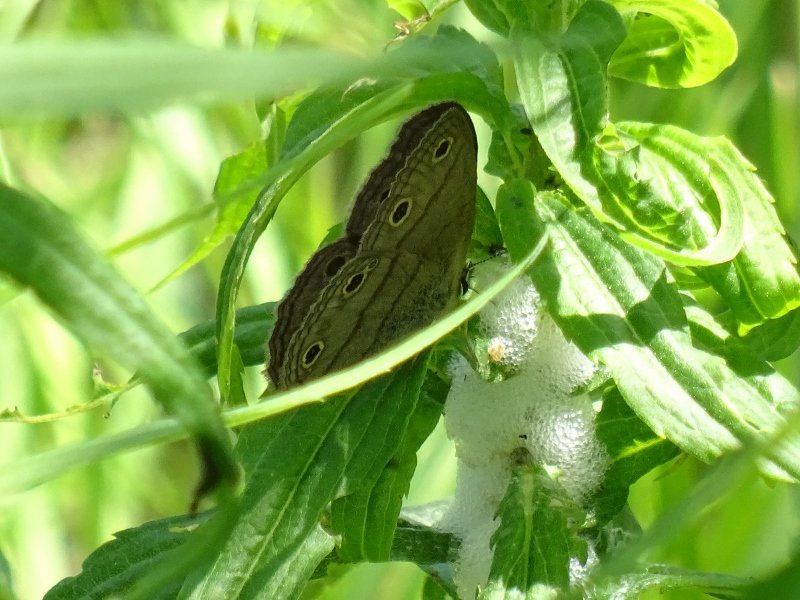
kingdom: Animalia
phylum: Arthropoda
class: Insecta
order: Lepidoptera
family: Nymphalidae
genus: Euptychia
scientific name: Euptychia cymela
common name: Little Wood Satyr
